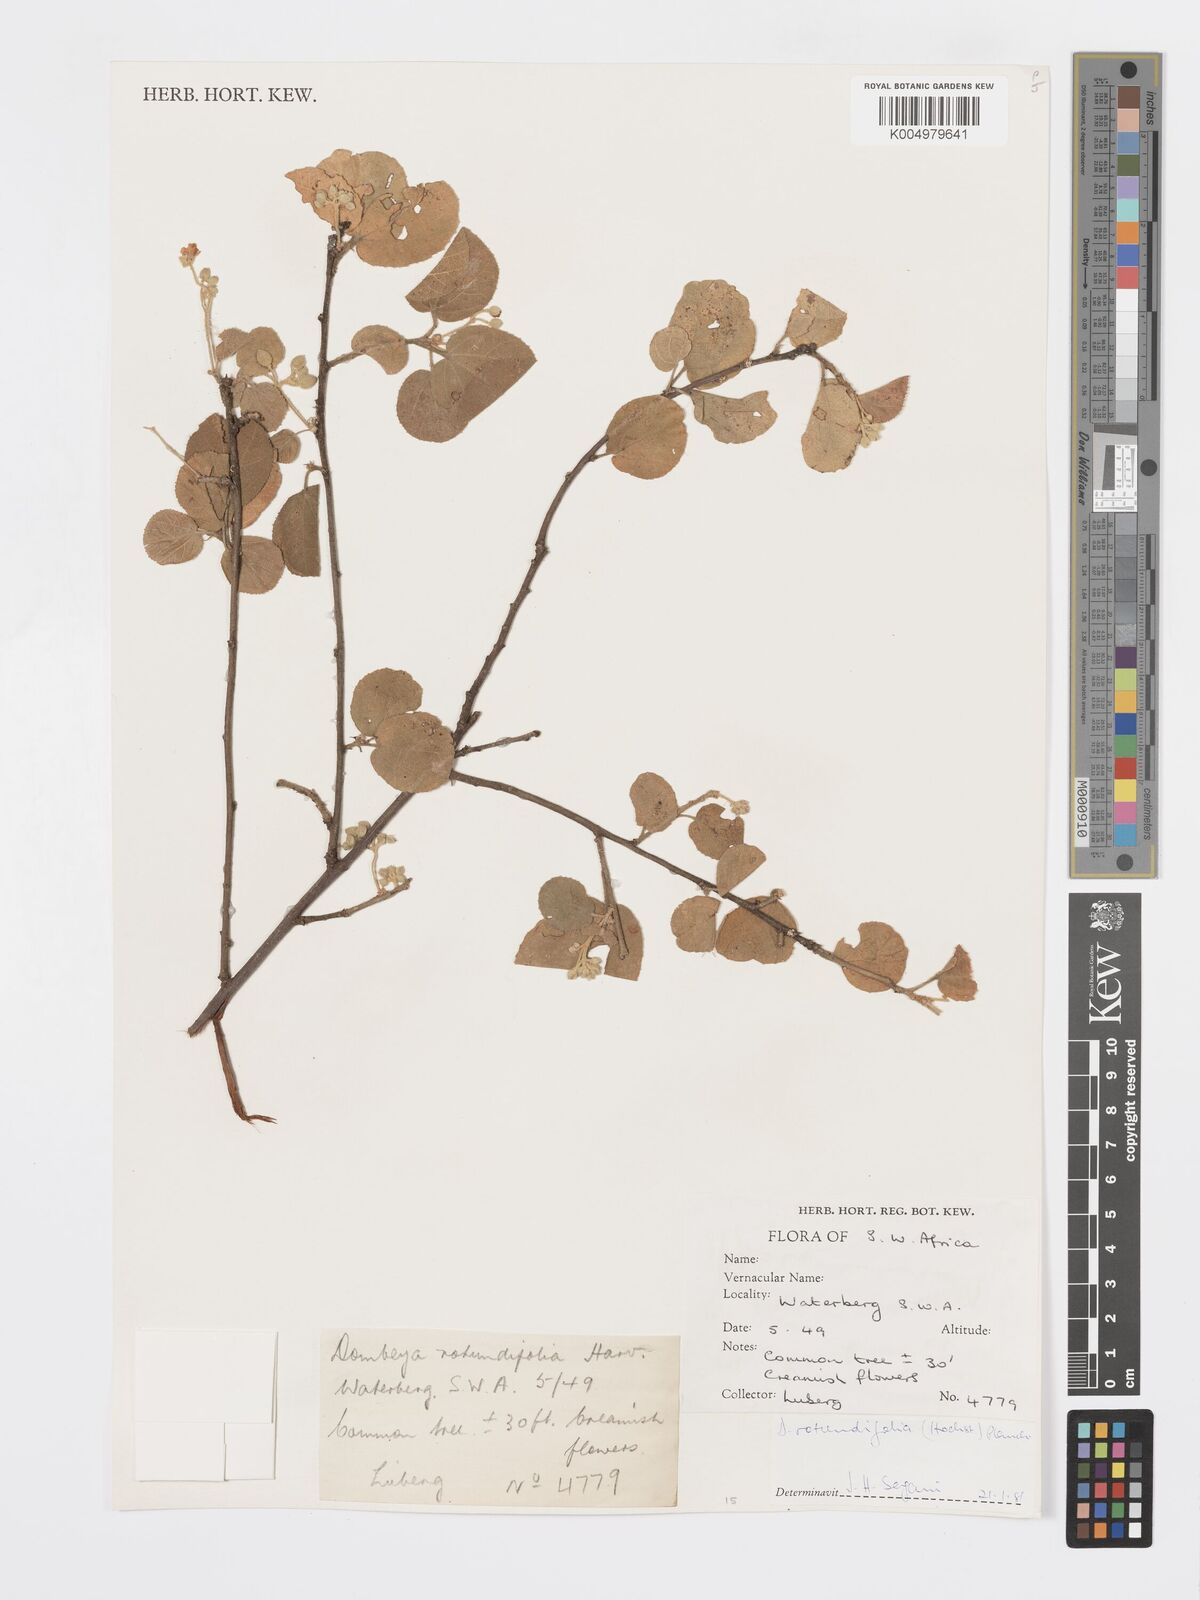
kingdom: Plantae
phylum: Tracheophyta
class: Magnoliopsida
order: Malvales
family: Malvaceae
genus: Dombeya
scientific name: Dombeya rotundifolia
